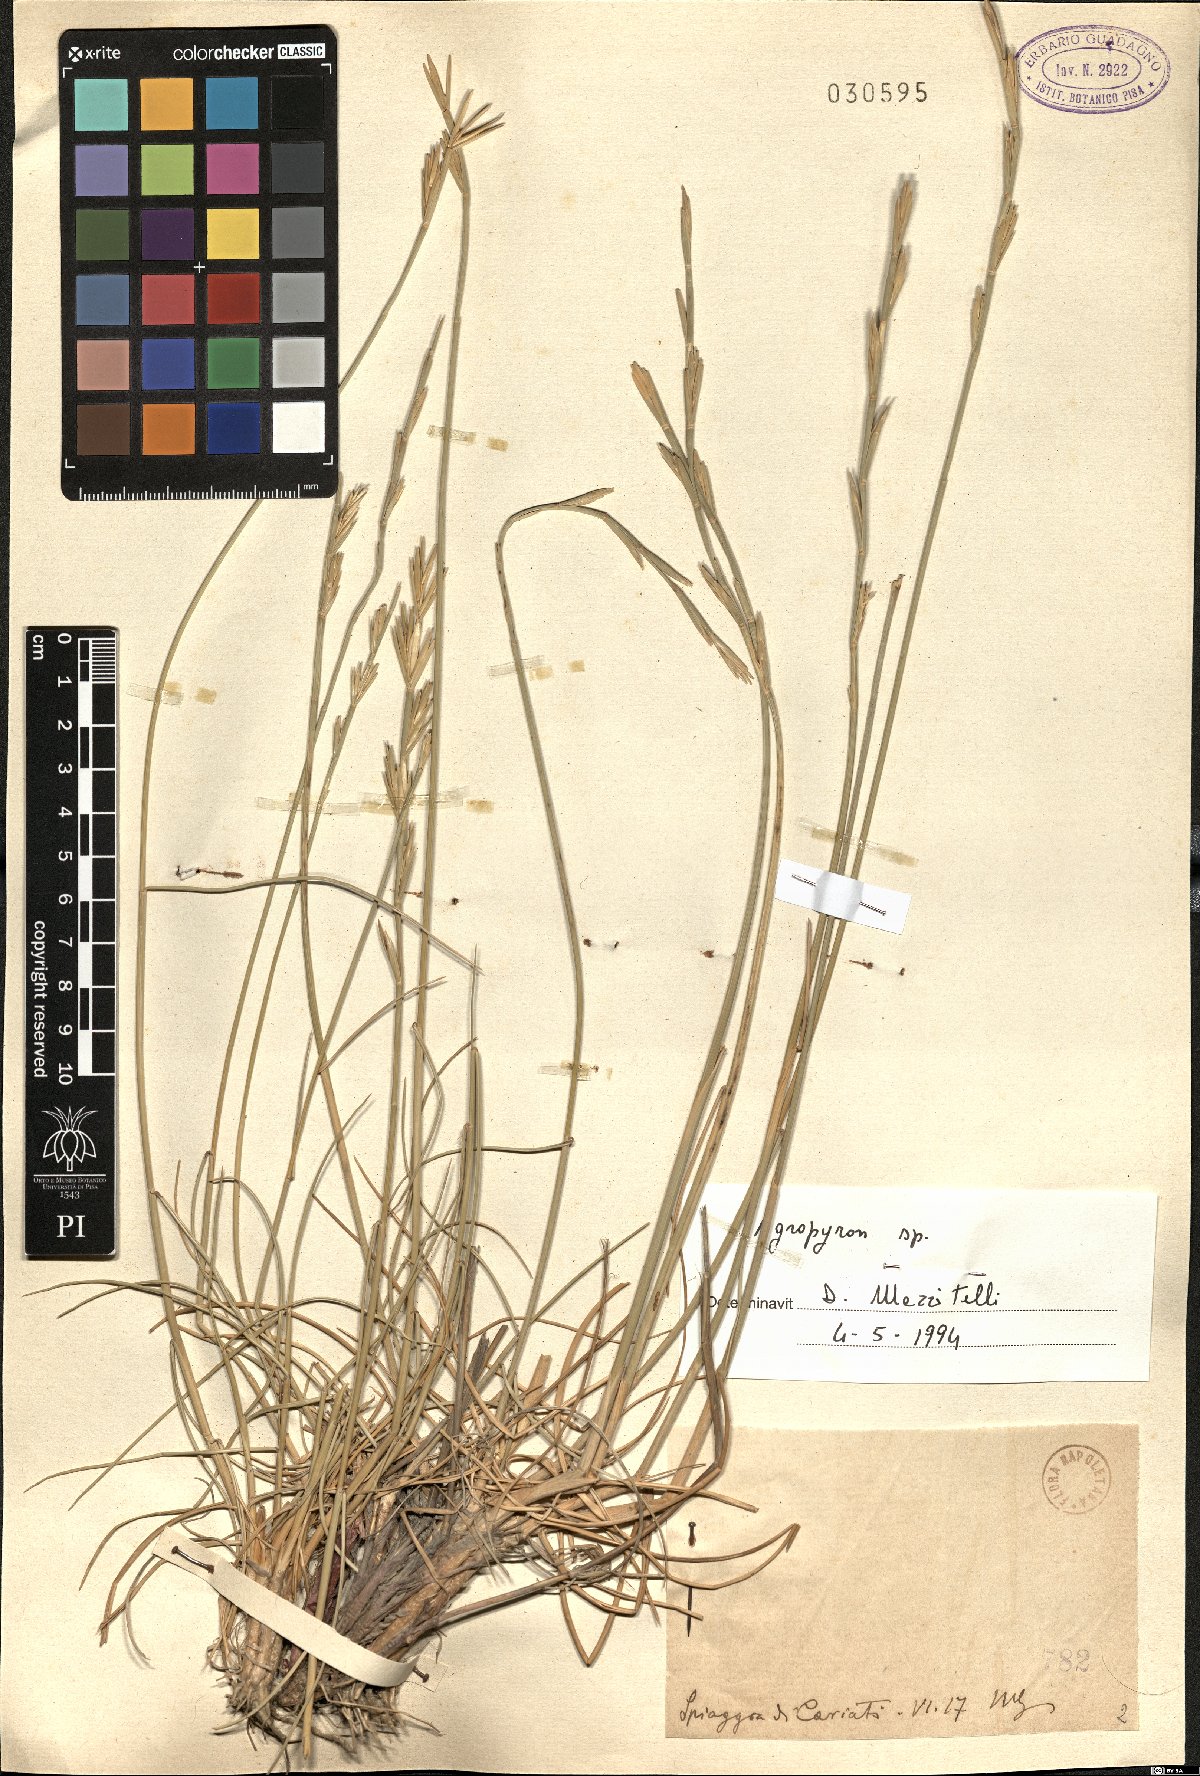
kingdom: Plantae
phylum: Tracheophyta
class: Liliopsida
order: Poales
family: Poaceae
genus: Agropyron
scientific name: Agropyron
